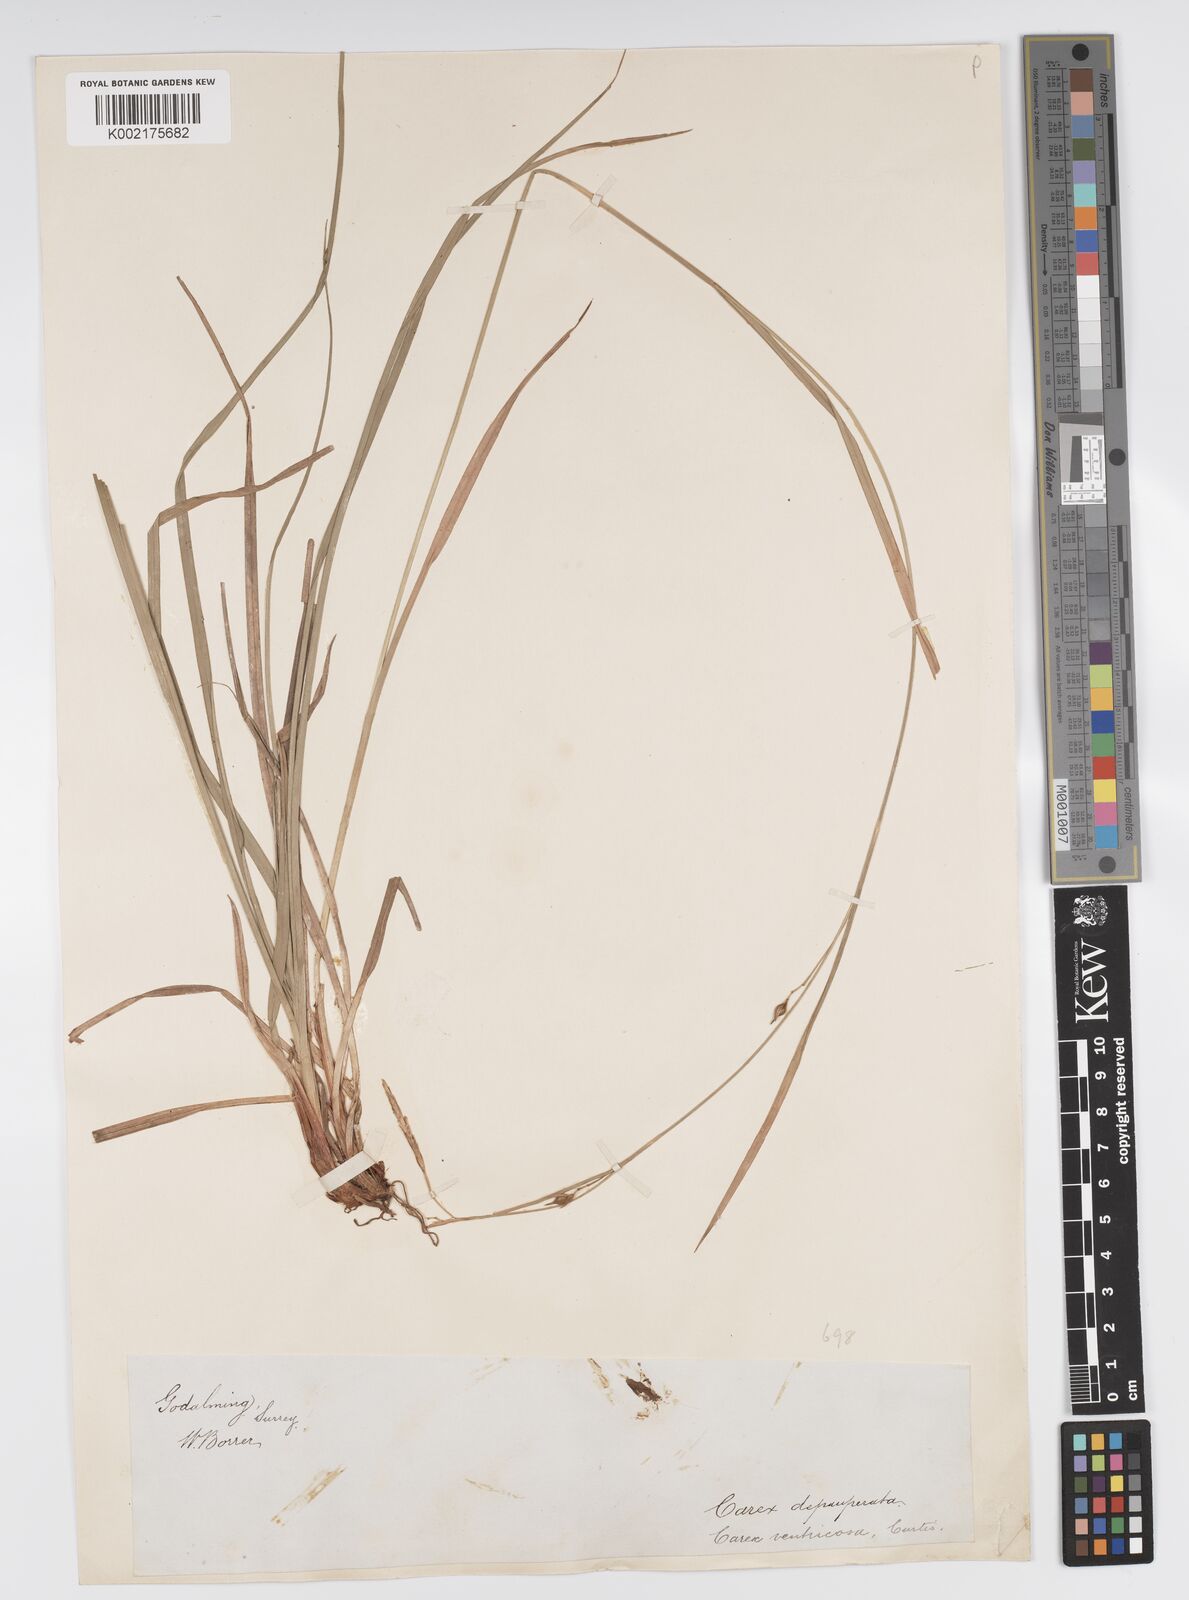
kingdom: Plantae
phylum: Tracheophyta
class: Liliopsida
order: Poales
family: Cyperaceae
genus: Carex
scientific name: Carex vaginata
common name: Sheathed sedge
